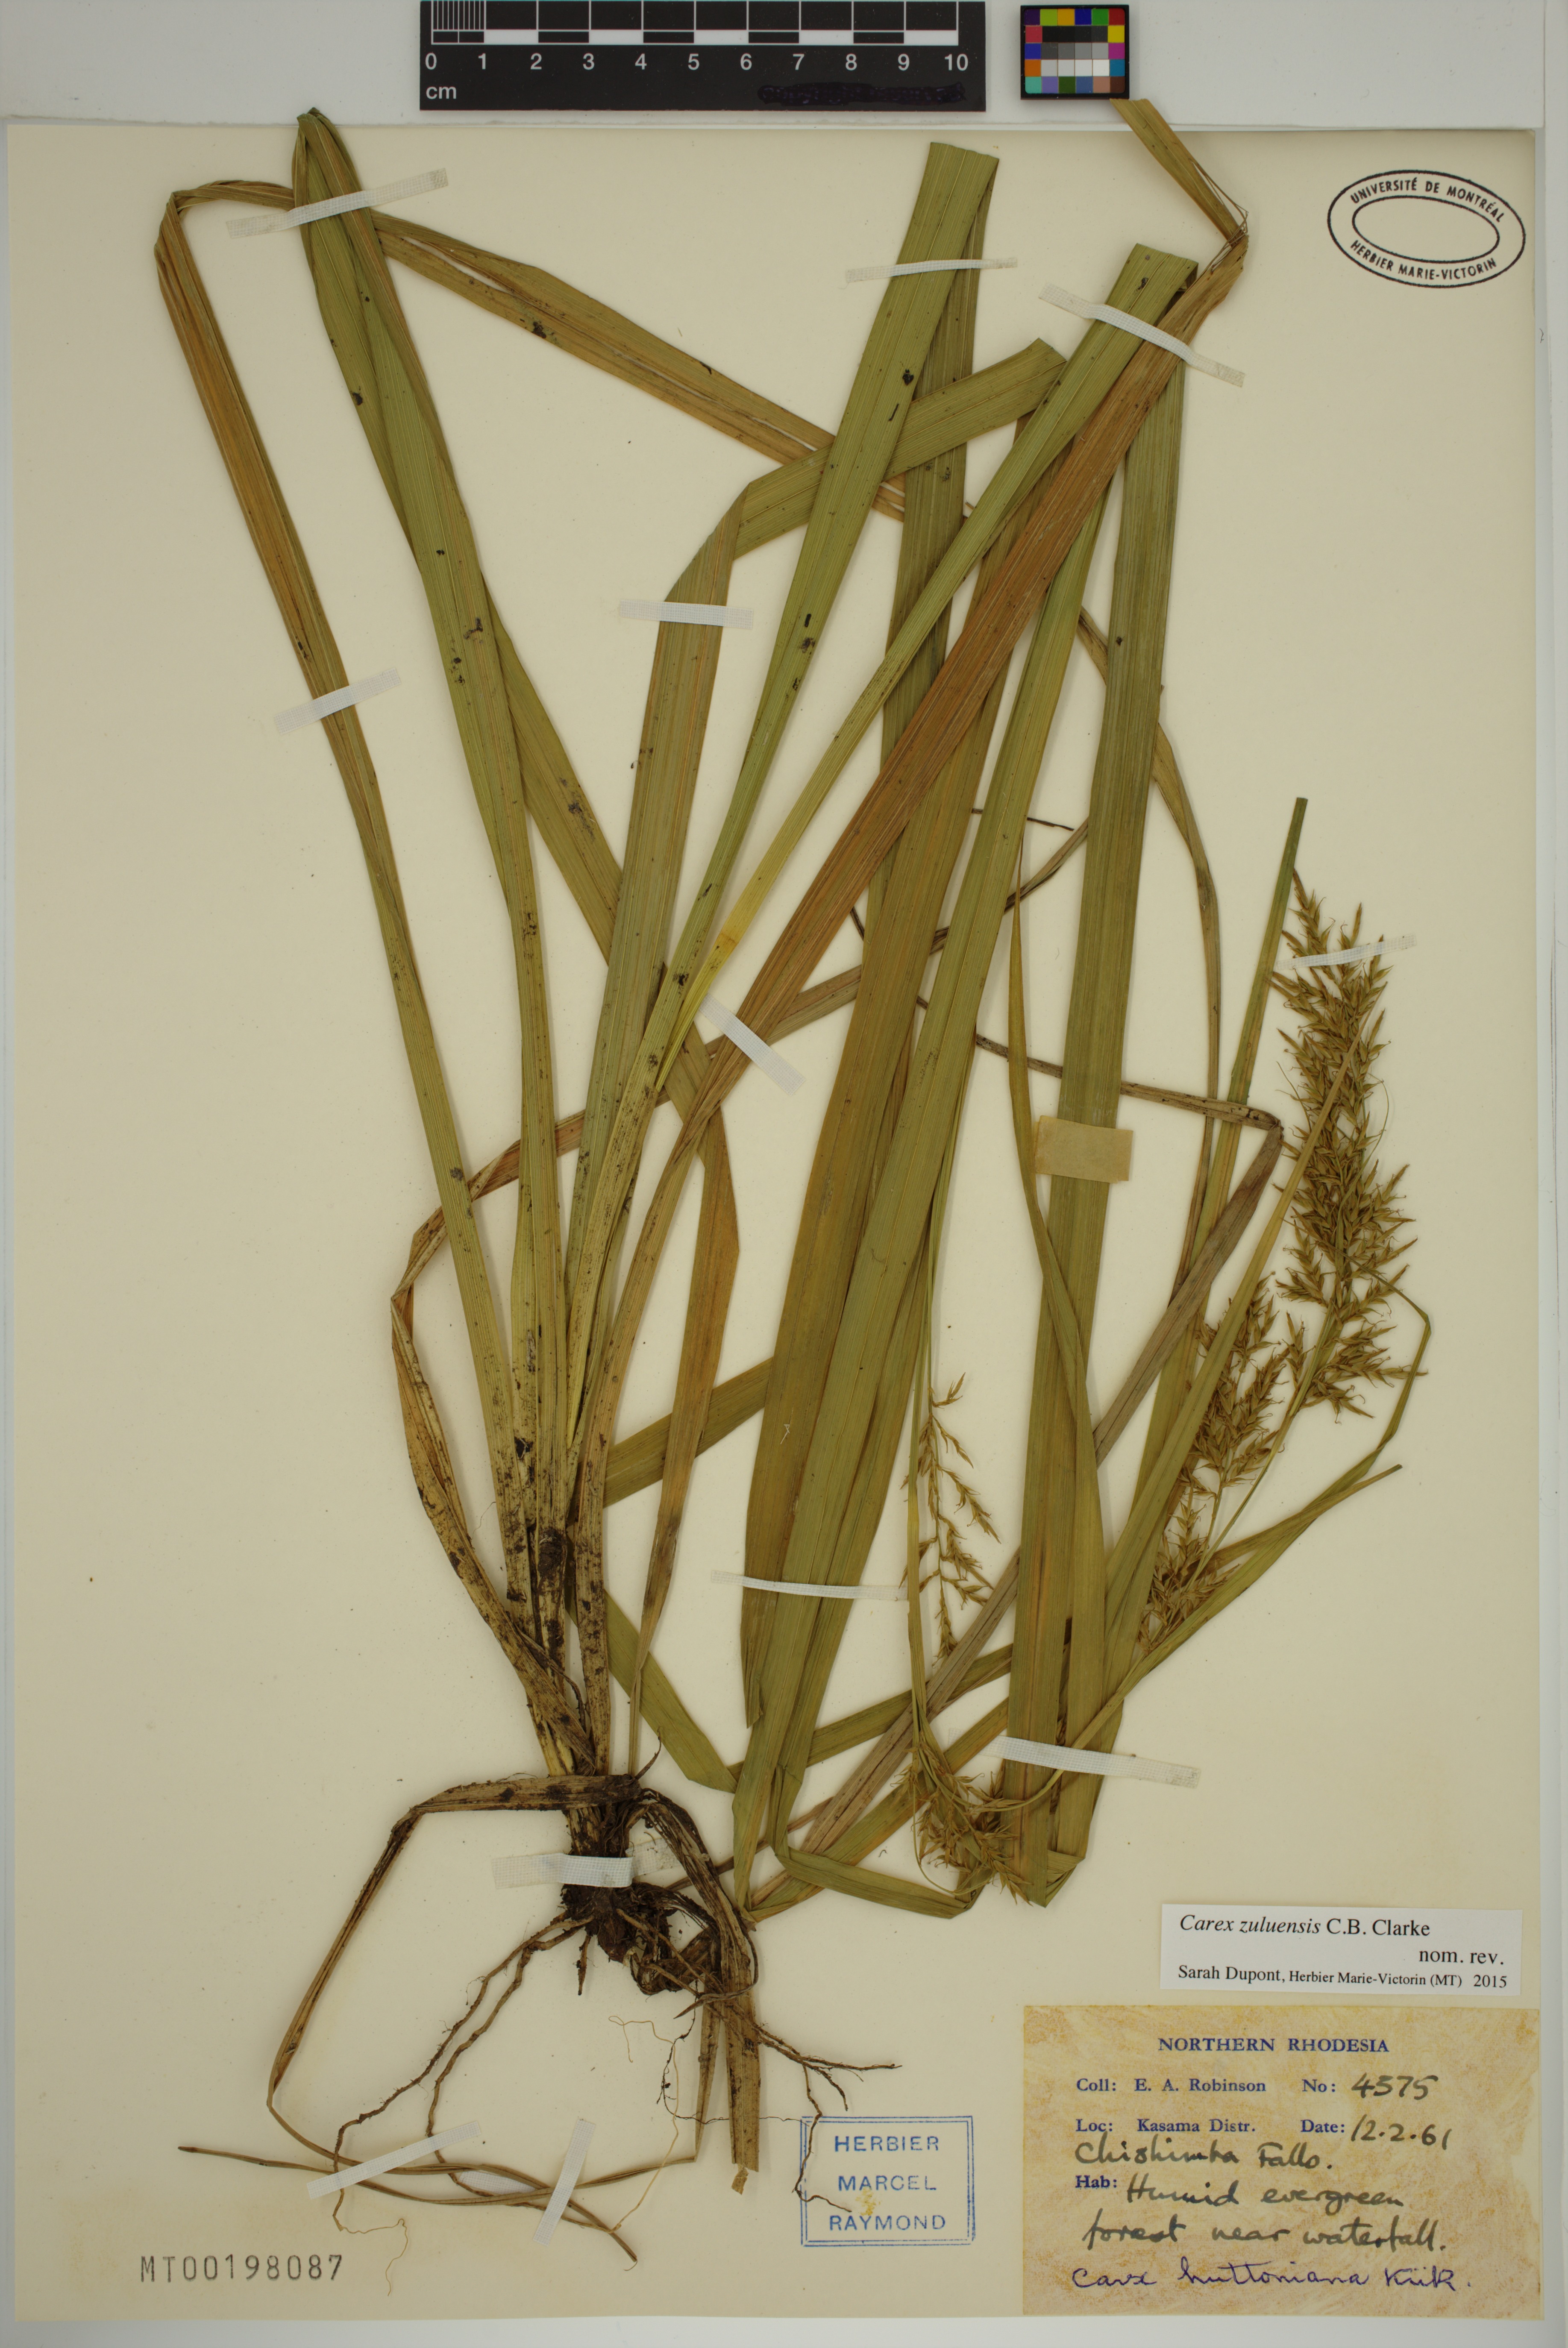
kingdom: Plantae
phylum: Tracheophyta
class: Liliopsida
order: Poales
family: Cyperaceae
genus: Carex
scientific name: Carex steudneri
